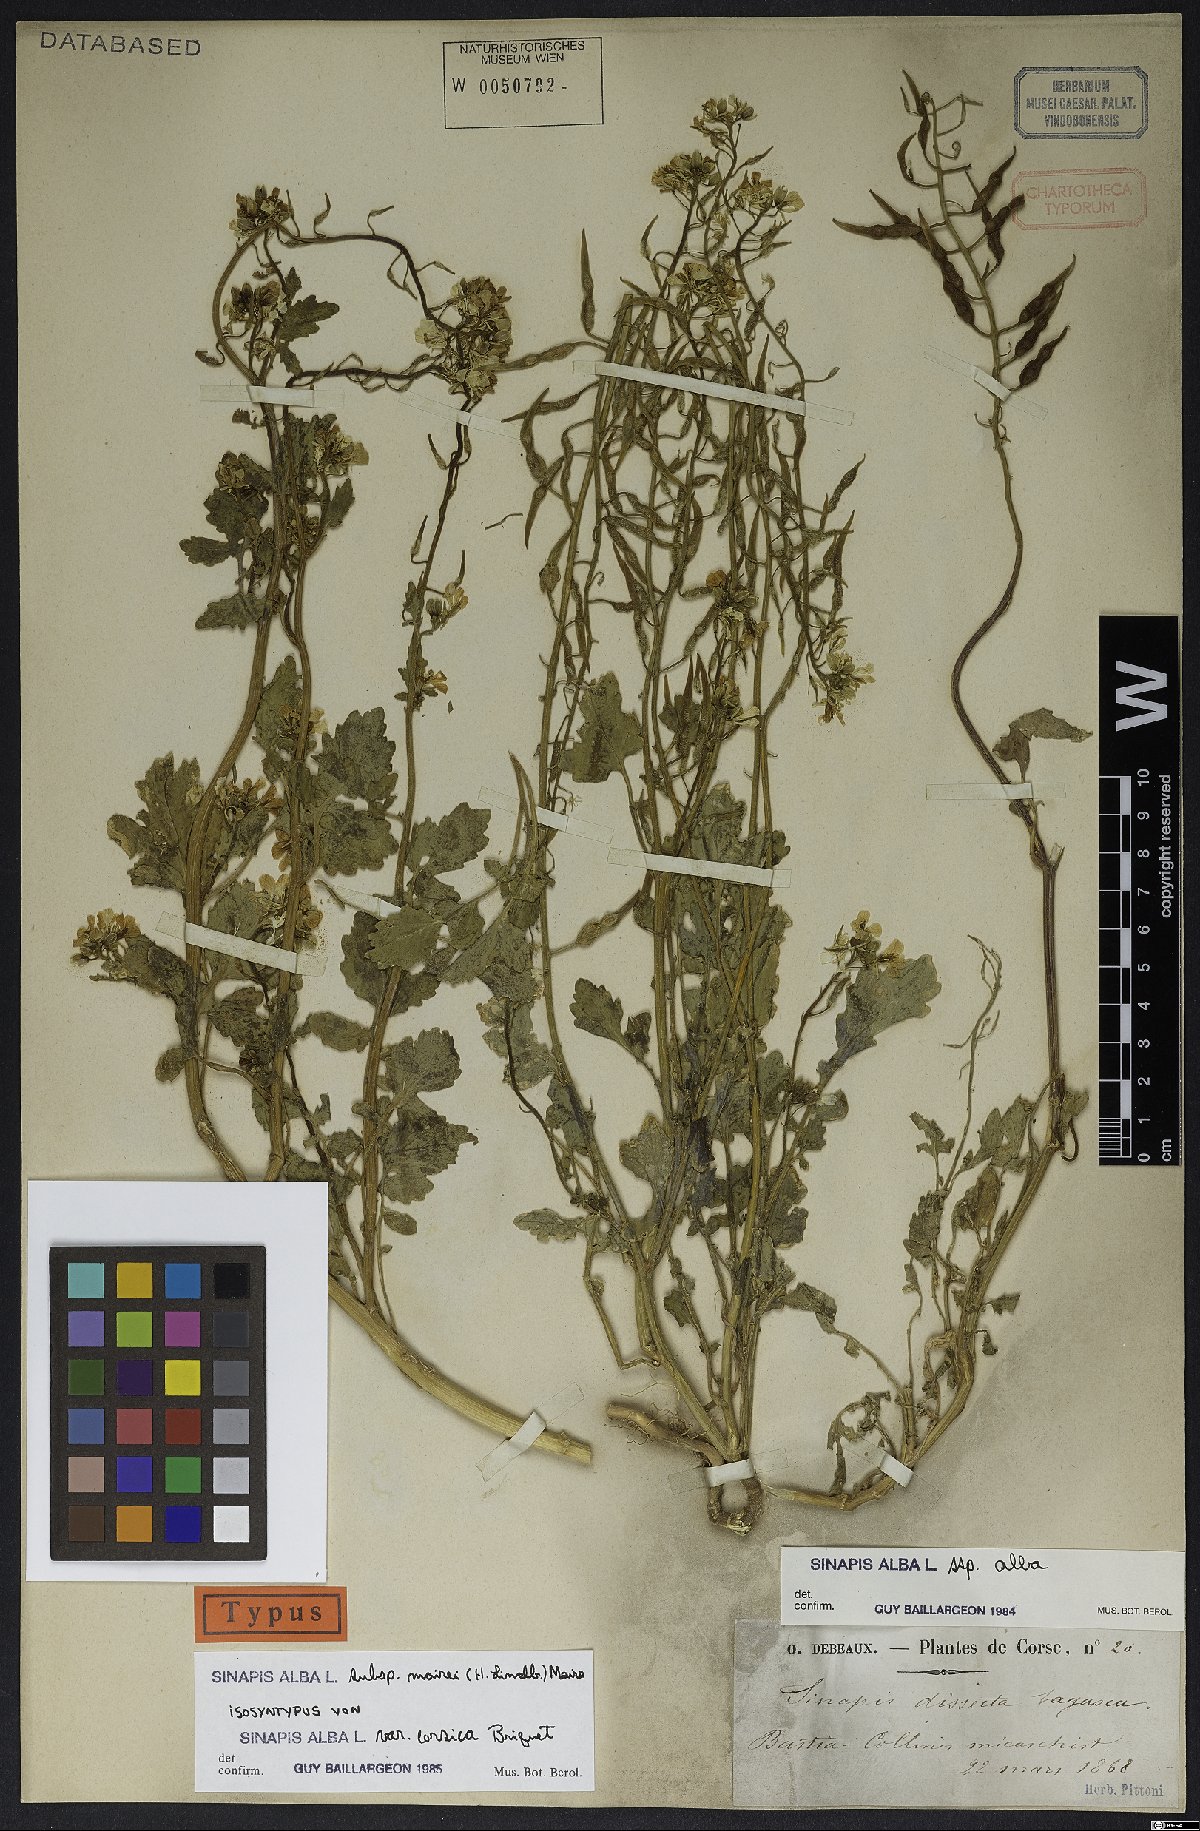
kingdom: Plantae
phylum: Tracheophyta
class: Magnoliopsida
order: Brassicales
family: Brassicaceae
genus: Sinapis
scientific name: Sinapis alba
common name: White mustard
